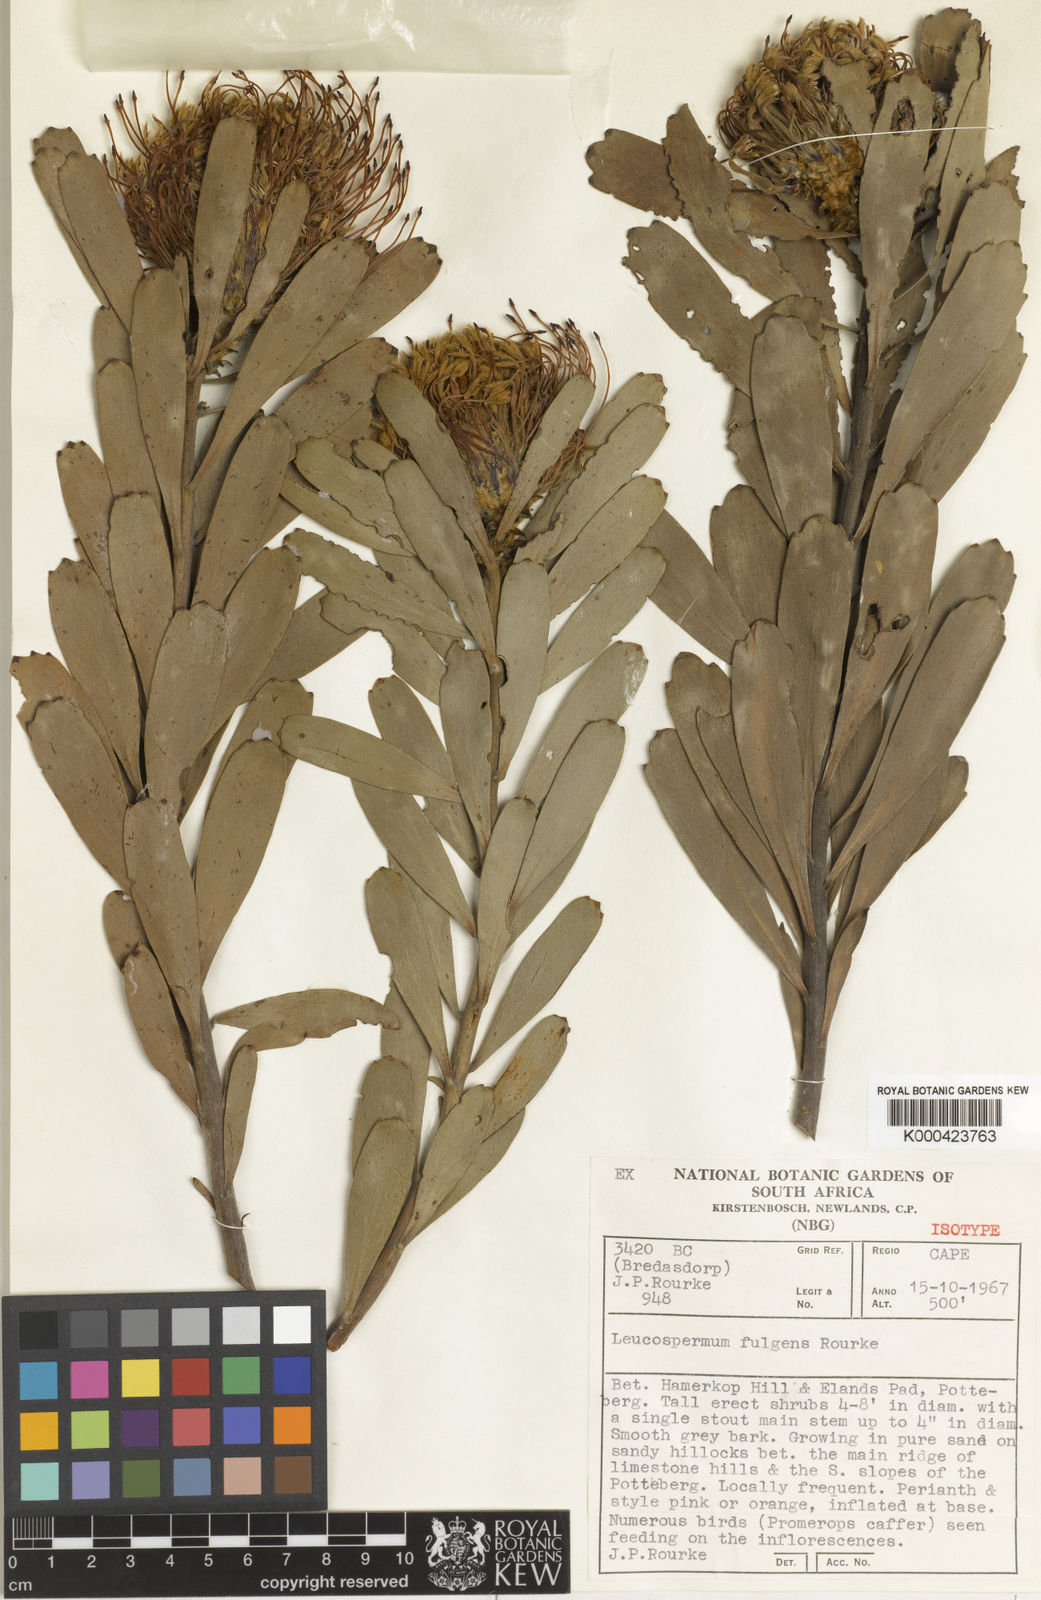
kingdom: Plantae
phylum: Tracheophyta
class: Magnoliopsida
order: Proteales
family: Proteaceae
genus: Leucospermum
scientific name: Leucospermum fulgens
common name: Potberg pincushion
